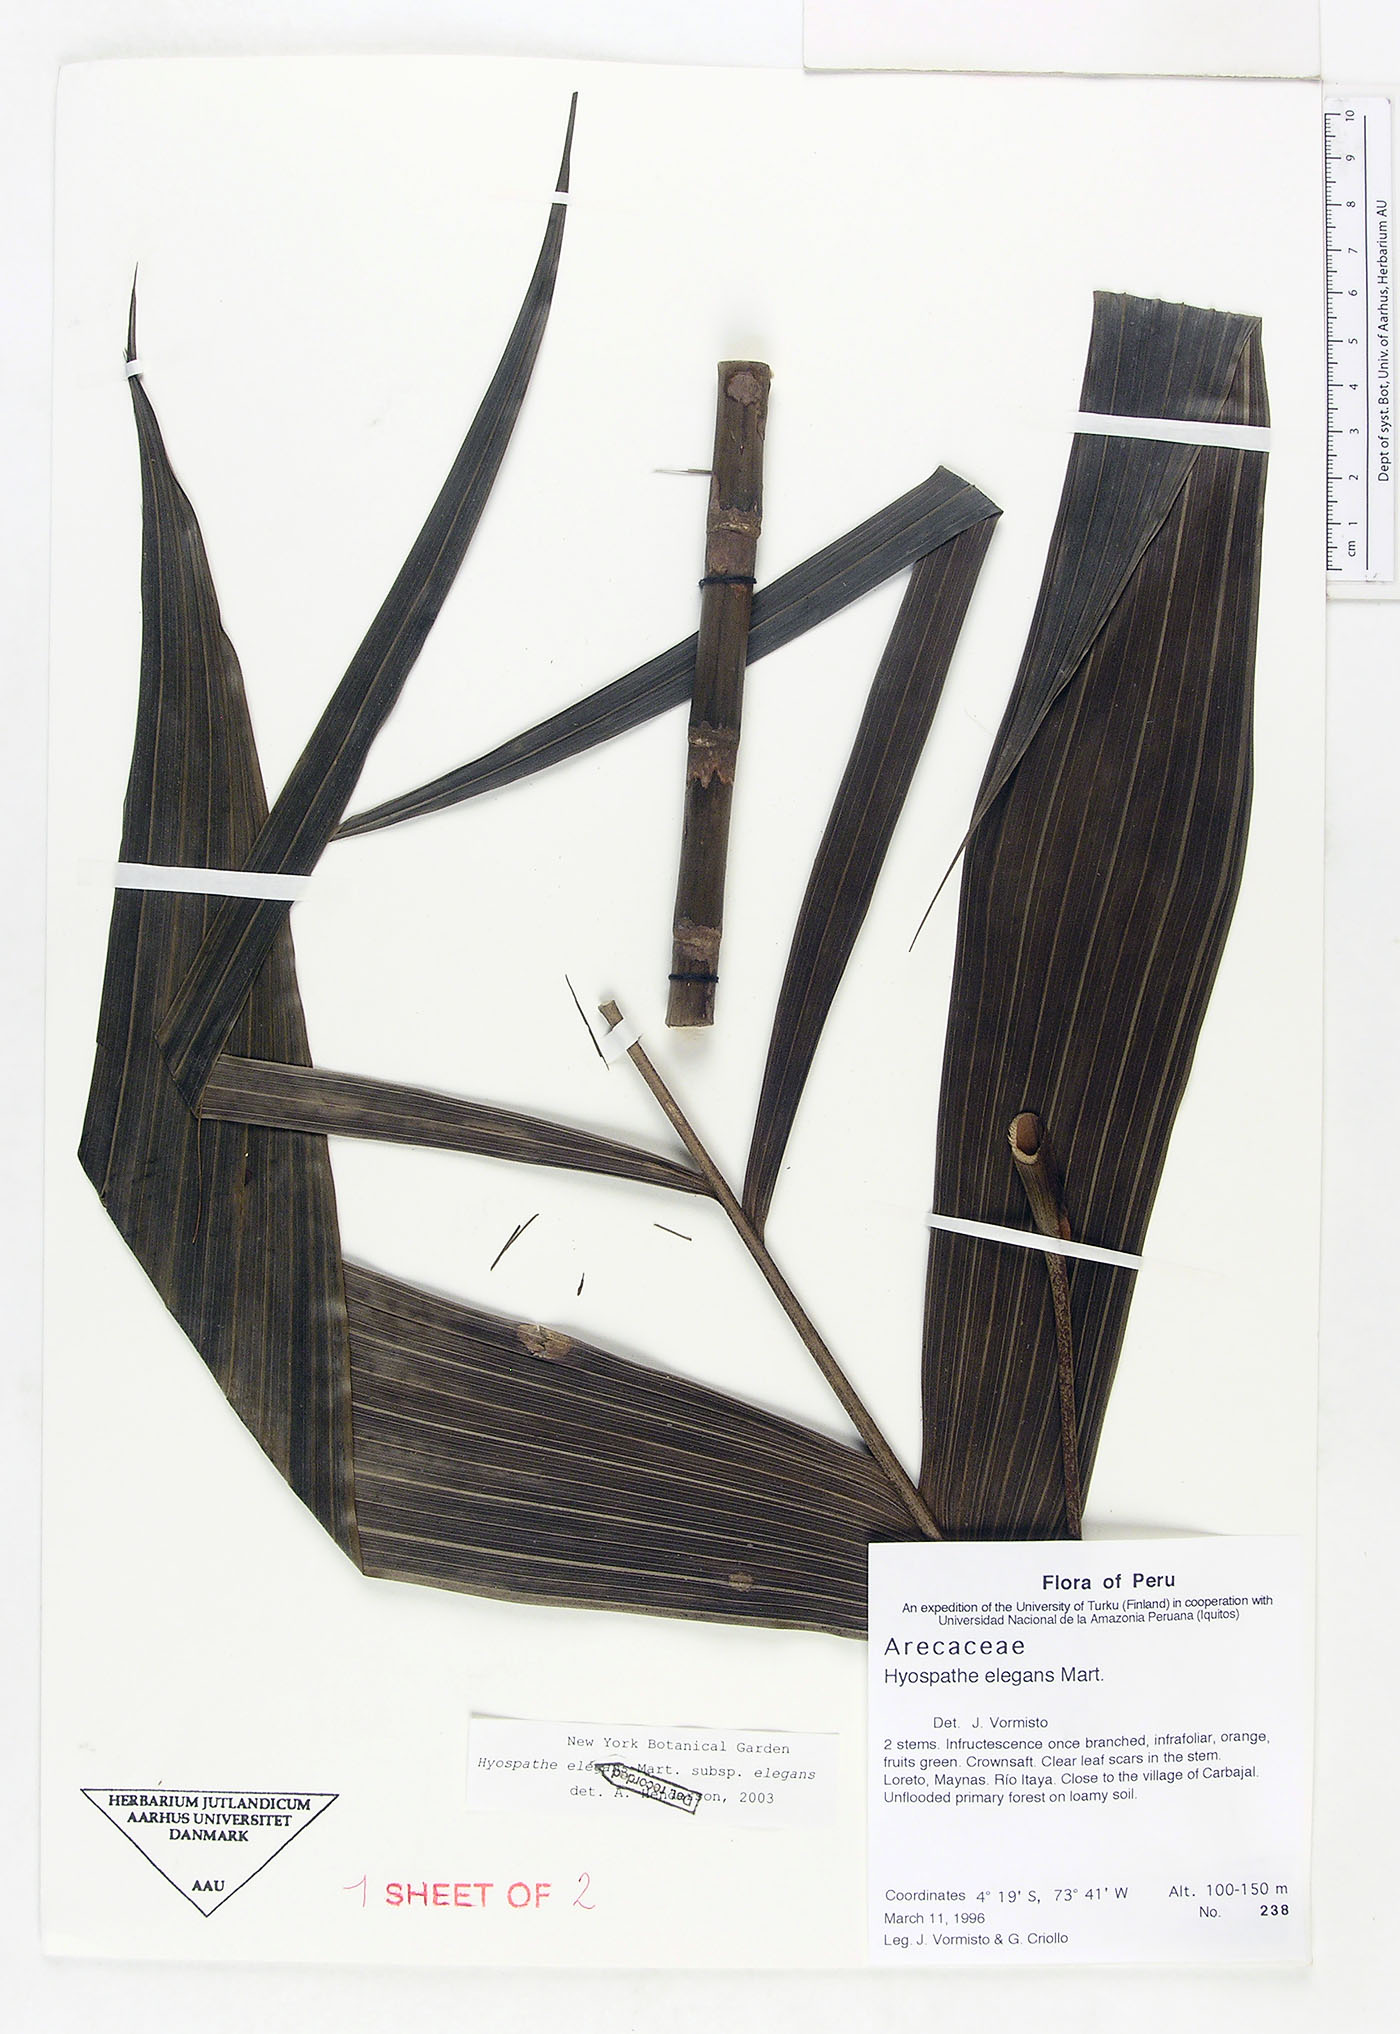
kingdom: Plantae
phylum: Tracheophyta
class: Liliopsida
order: Arecales
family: Arecaceae
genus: Hyospathe
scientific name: Hyospathe elegans
